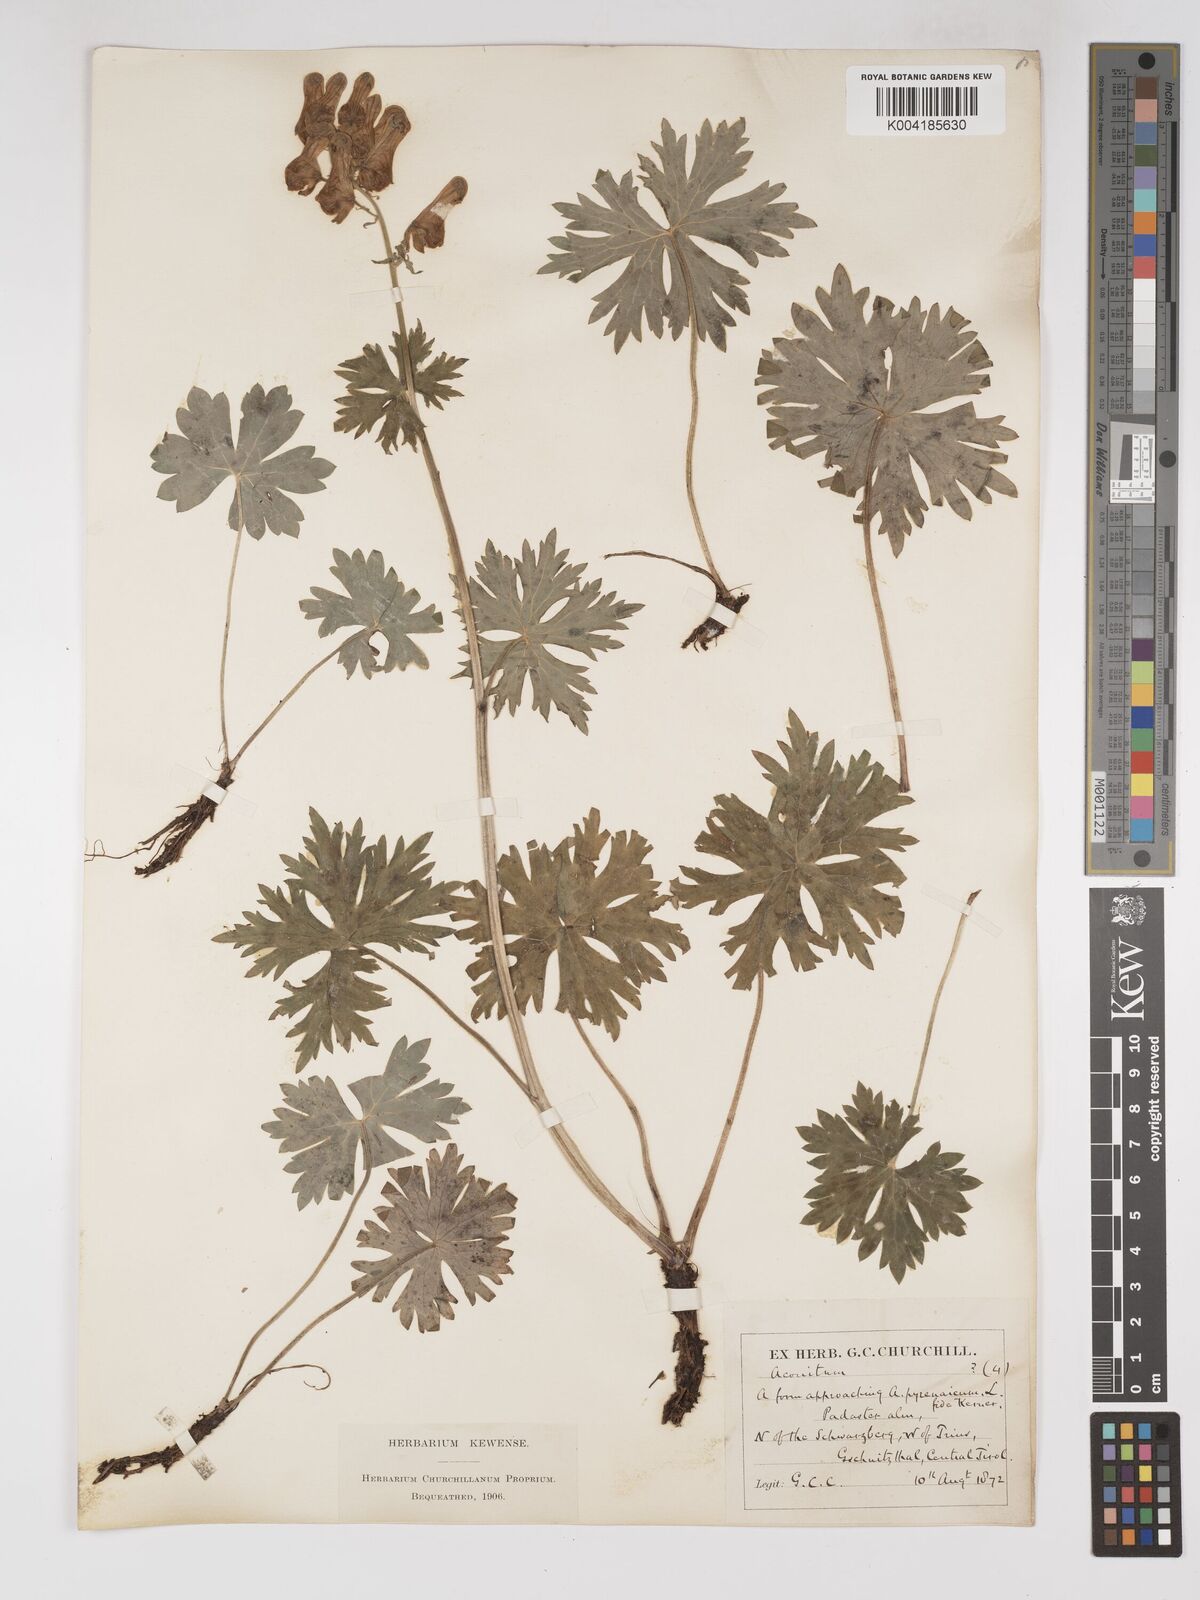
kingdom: Plantae
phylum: Tracheophyta
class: Magnoliopsida
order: Ranunculales
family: Ranunculaceae
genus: Aconitum
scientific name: Aconitum lycoctonum
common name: Wolf's-bane
